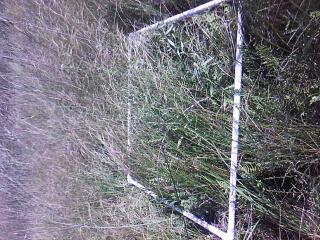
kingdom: Plantae
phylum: Tracheophyta
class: Magnoliopsida
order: Asterales
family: Asteraceae
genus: Solidago
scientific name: Solidago riddellii
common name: Riddell's goldenrod
